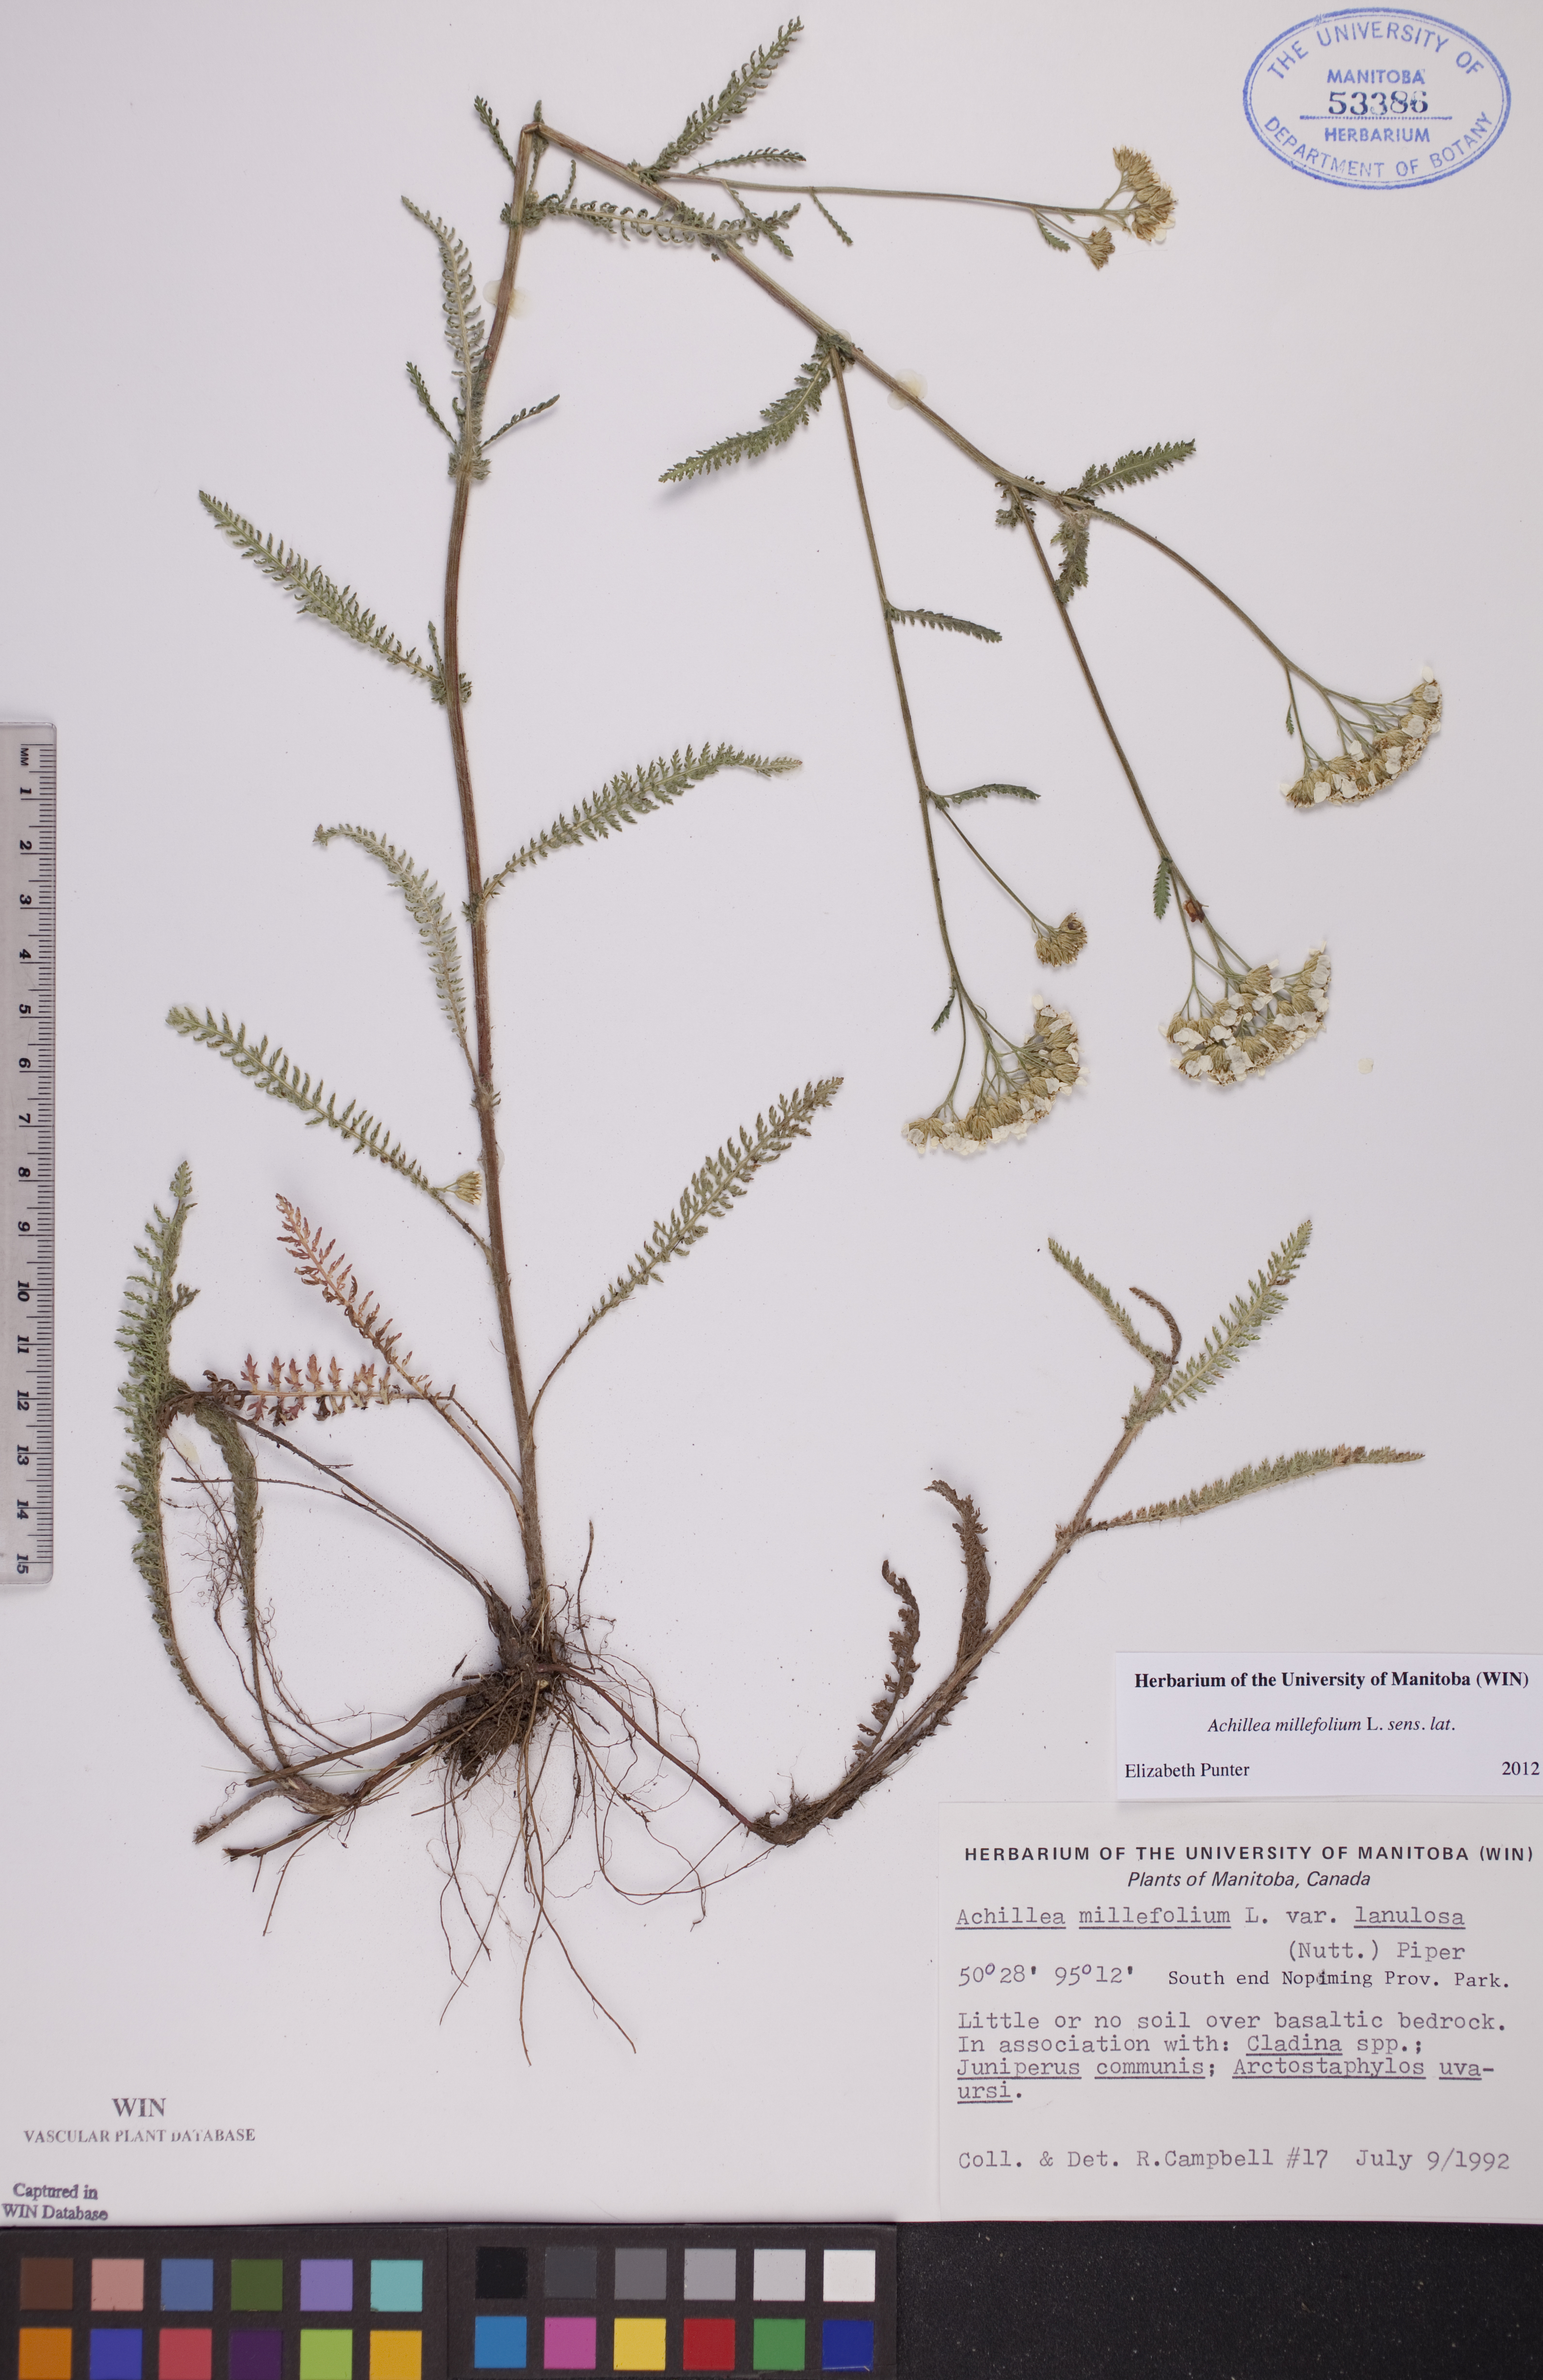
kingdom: Plantae
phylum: Tracheophyta
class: Magnoliopsida
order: Asterales
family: Asteraceae
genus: Achillea
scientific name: Achillea millefolium
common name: Yarrow
